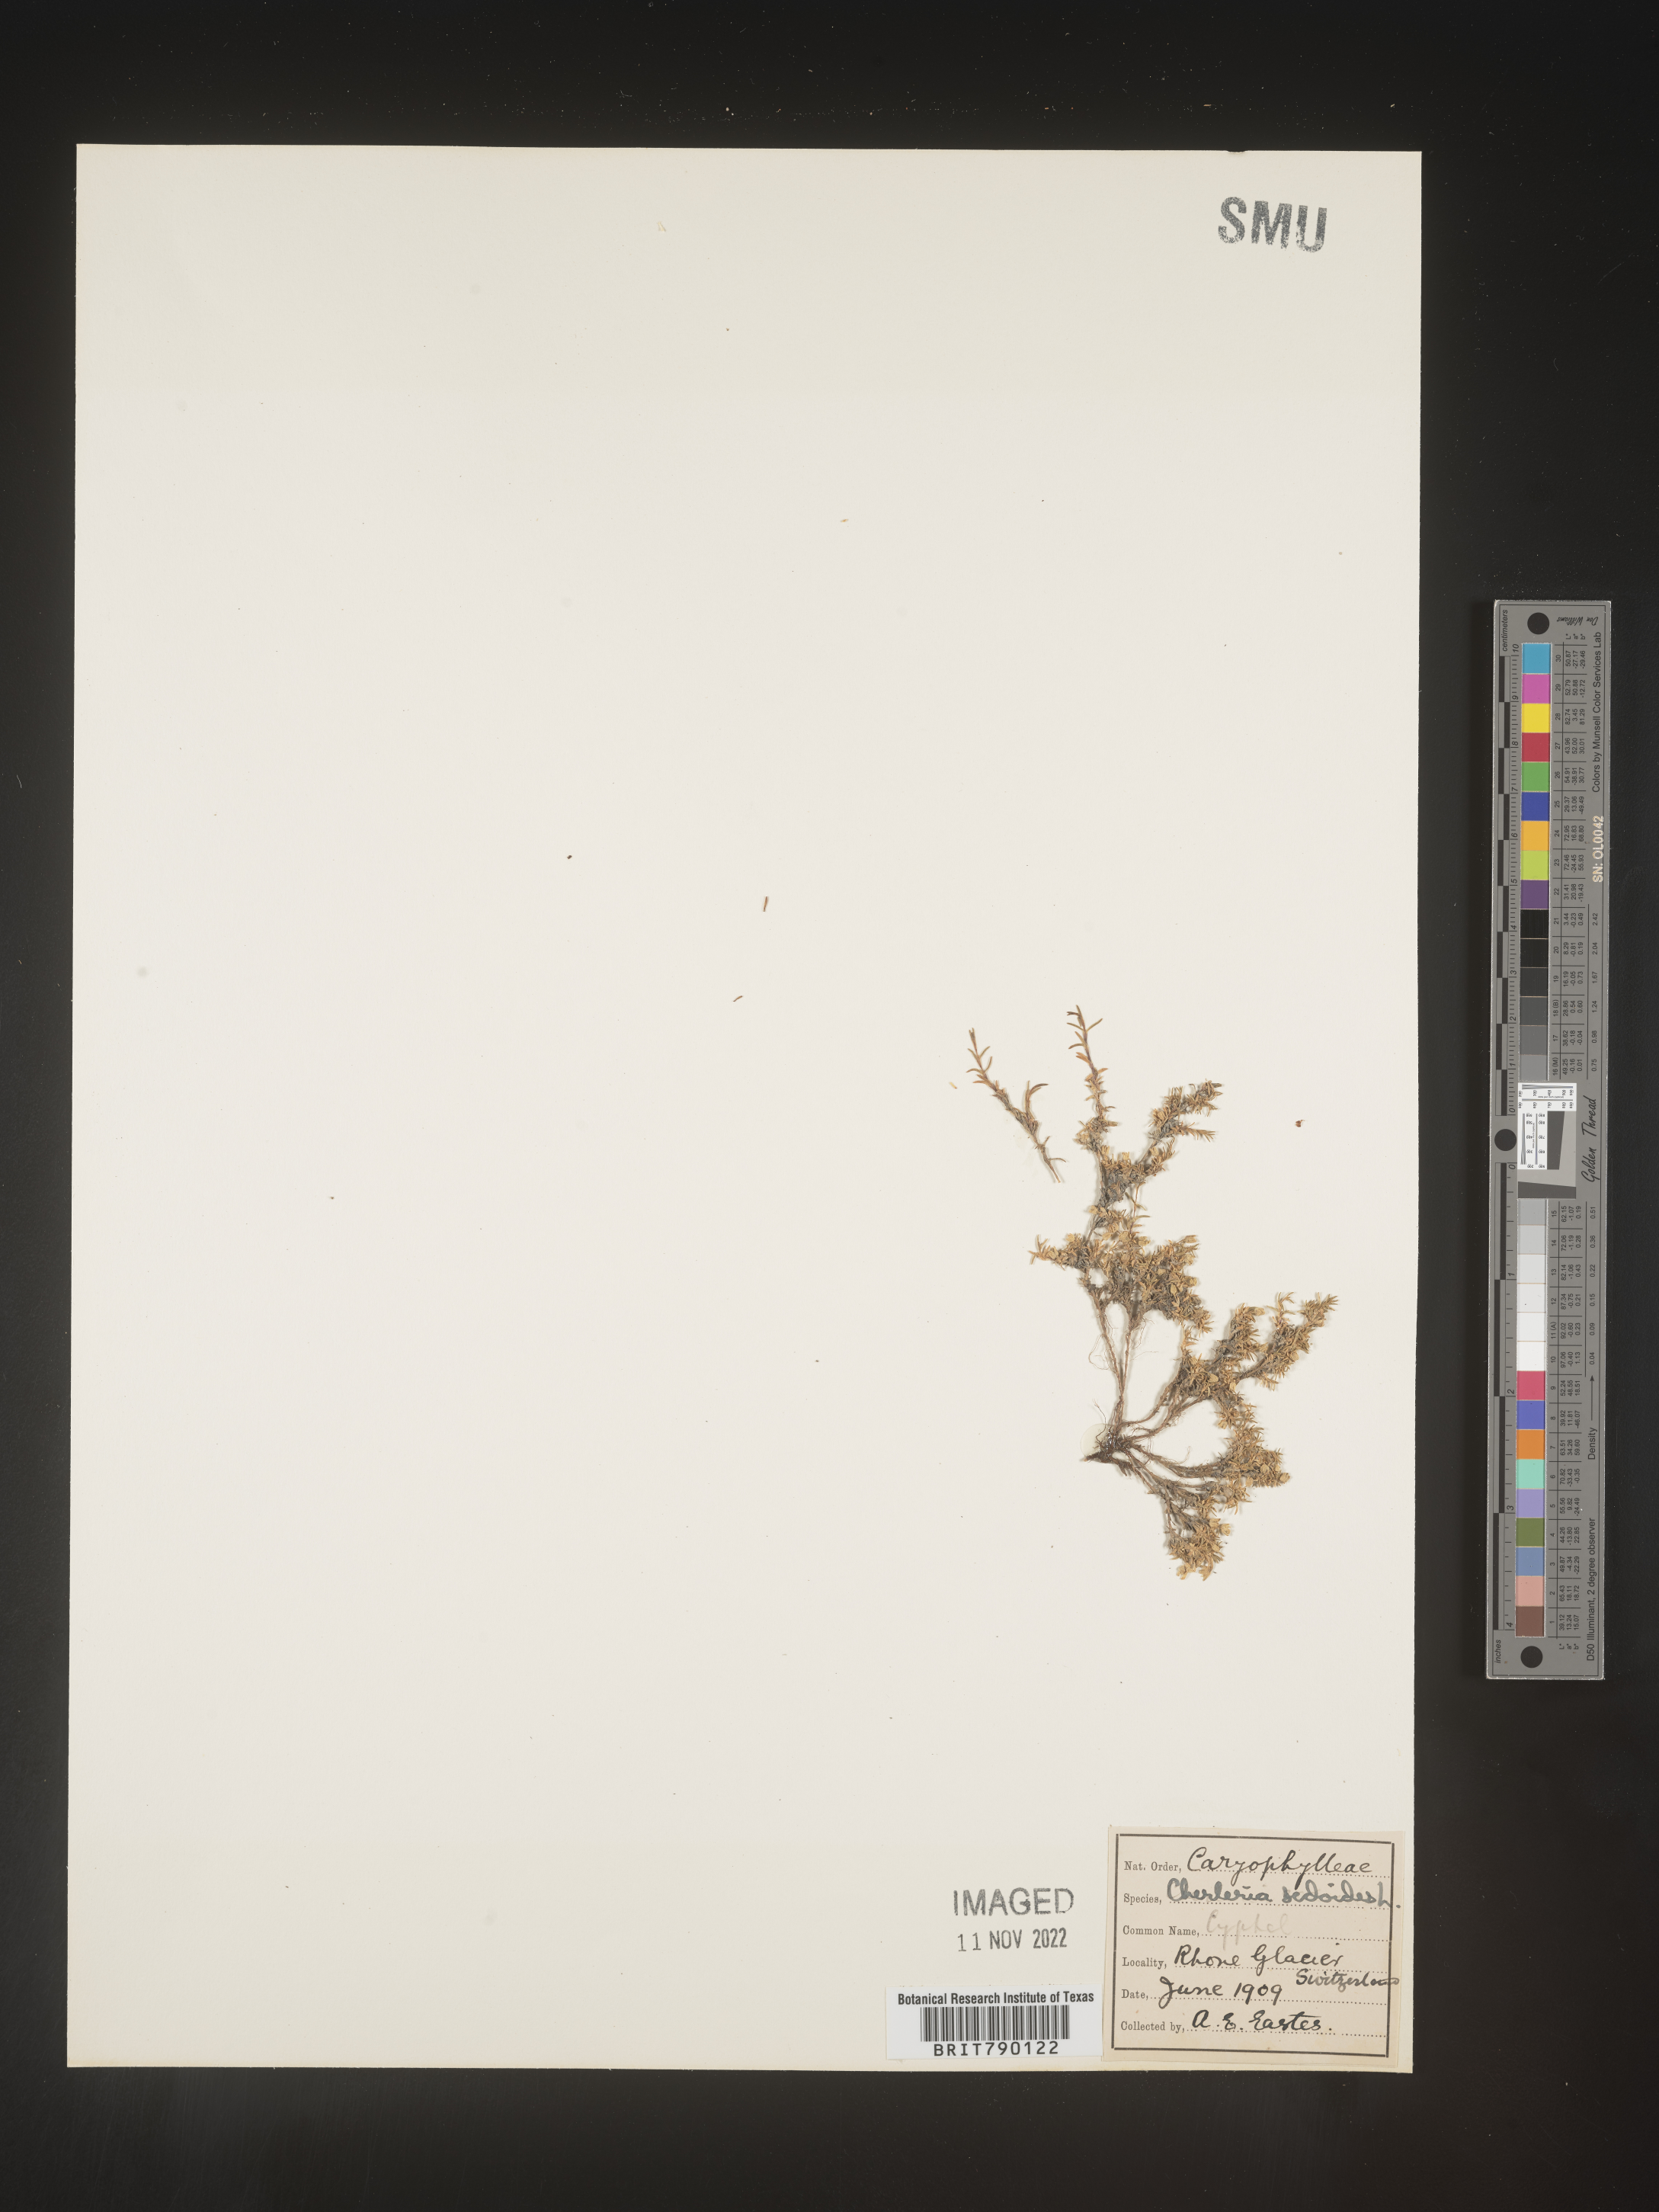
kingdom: Plantae
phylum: Tracheophyta
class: Magnoliopsida
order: Caryophyllales
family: Caryophyllaceae
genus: Cherleria
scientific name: Cherleria
